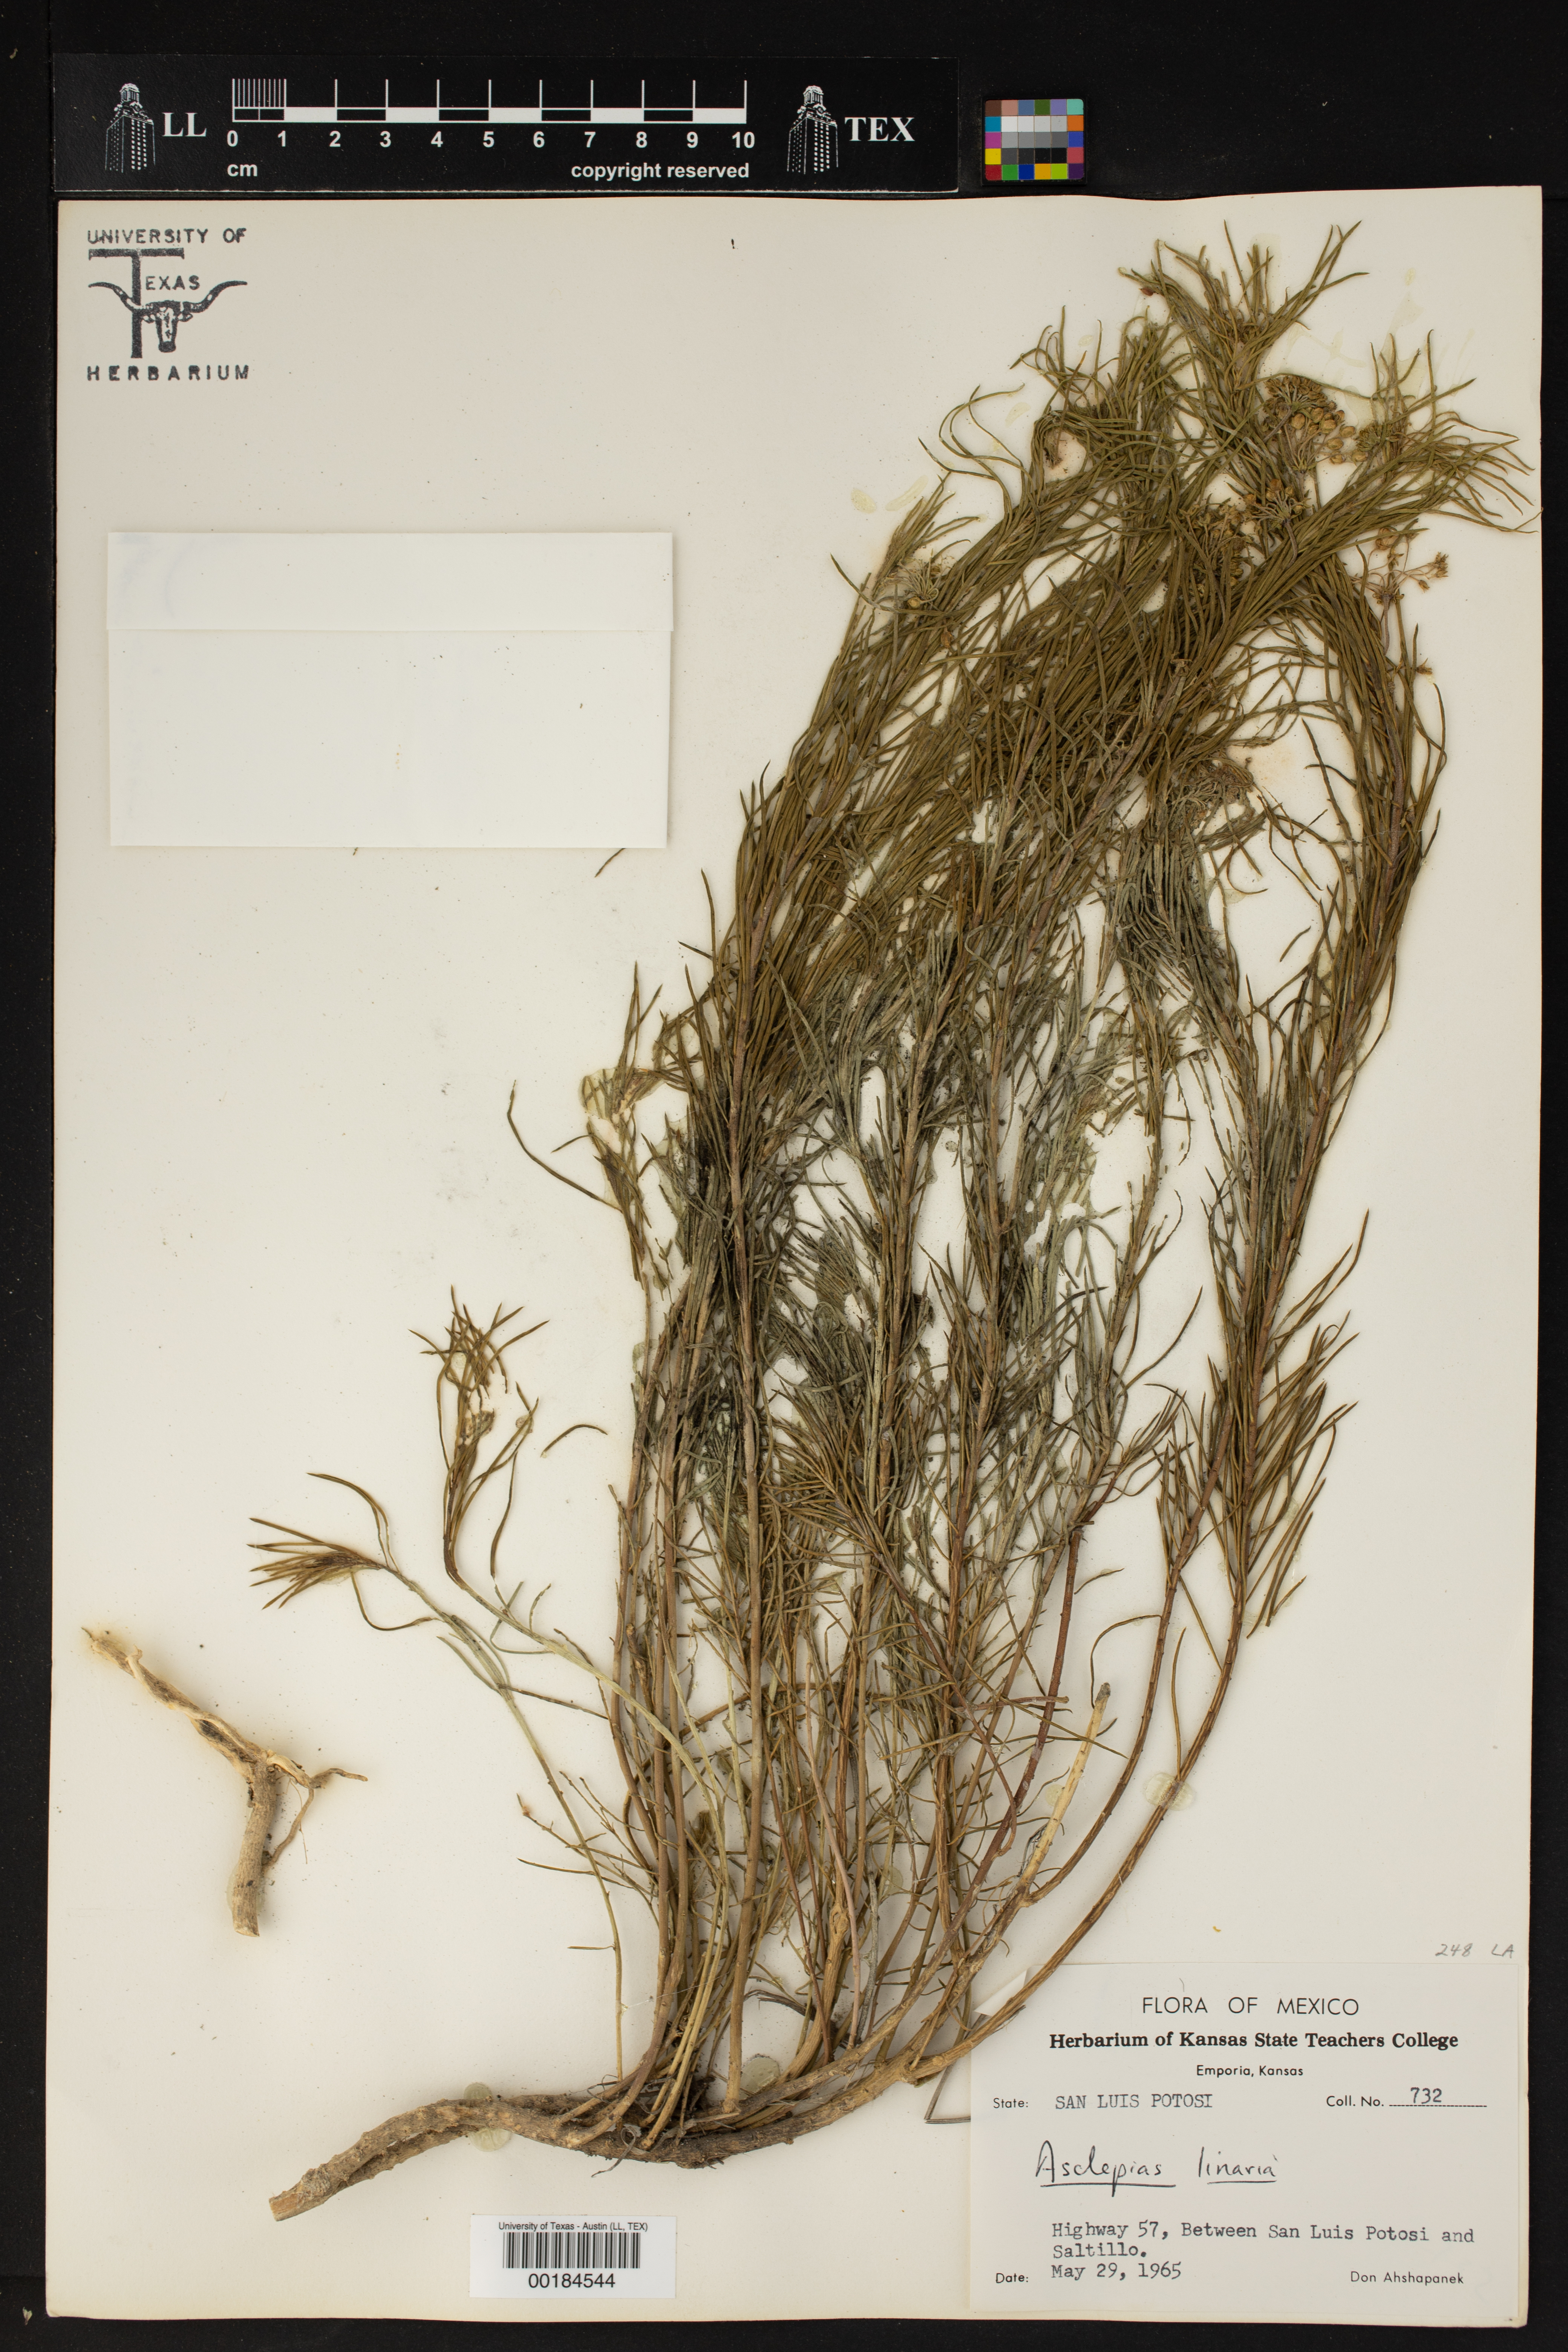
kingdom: Plantae
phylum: Tracheophyta
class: Magnoliopsida
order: Gentianales
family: Apocynaceae
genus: Asclepias
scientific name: Asclepias linaria
